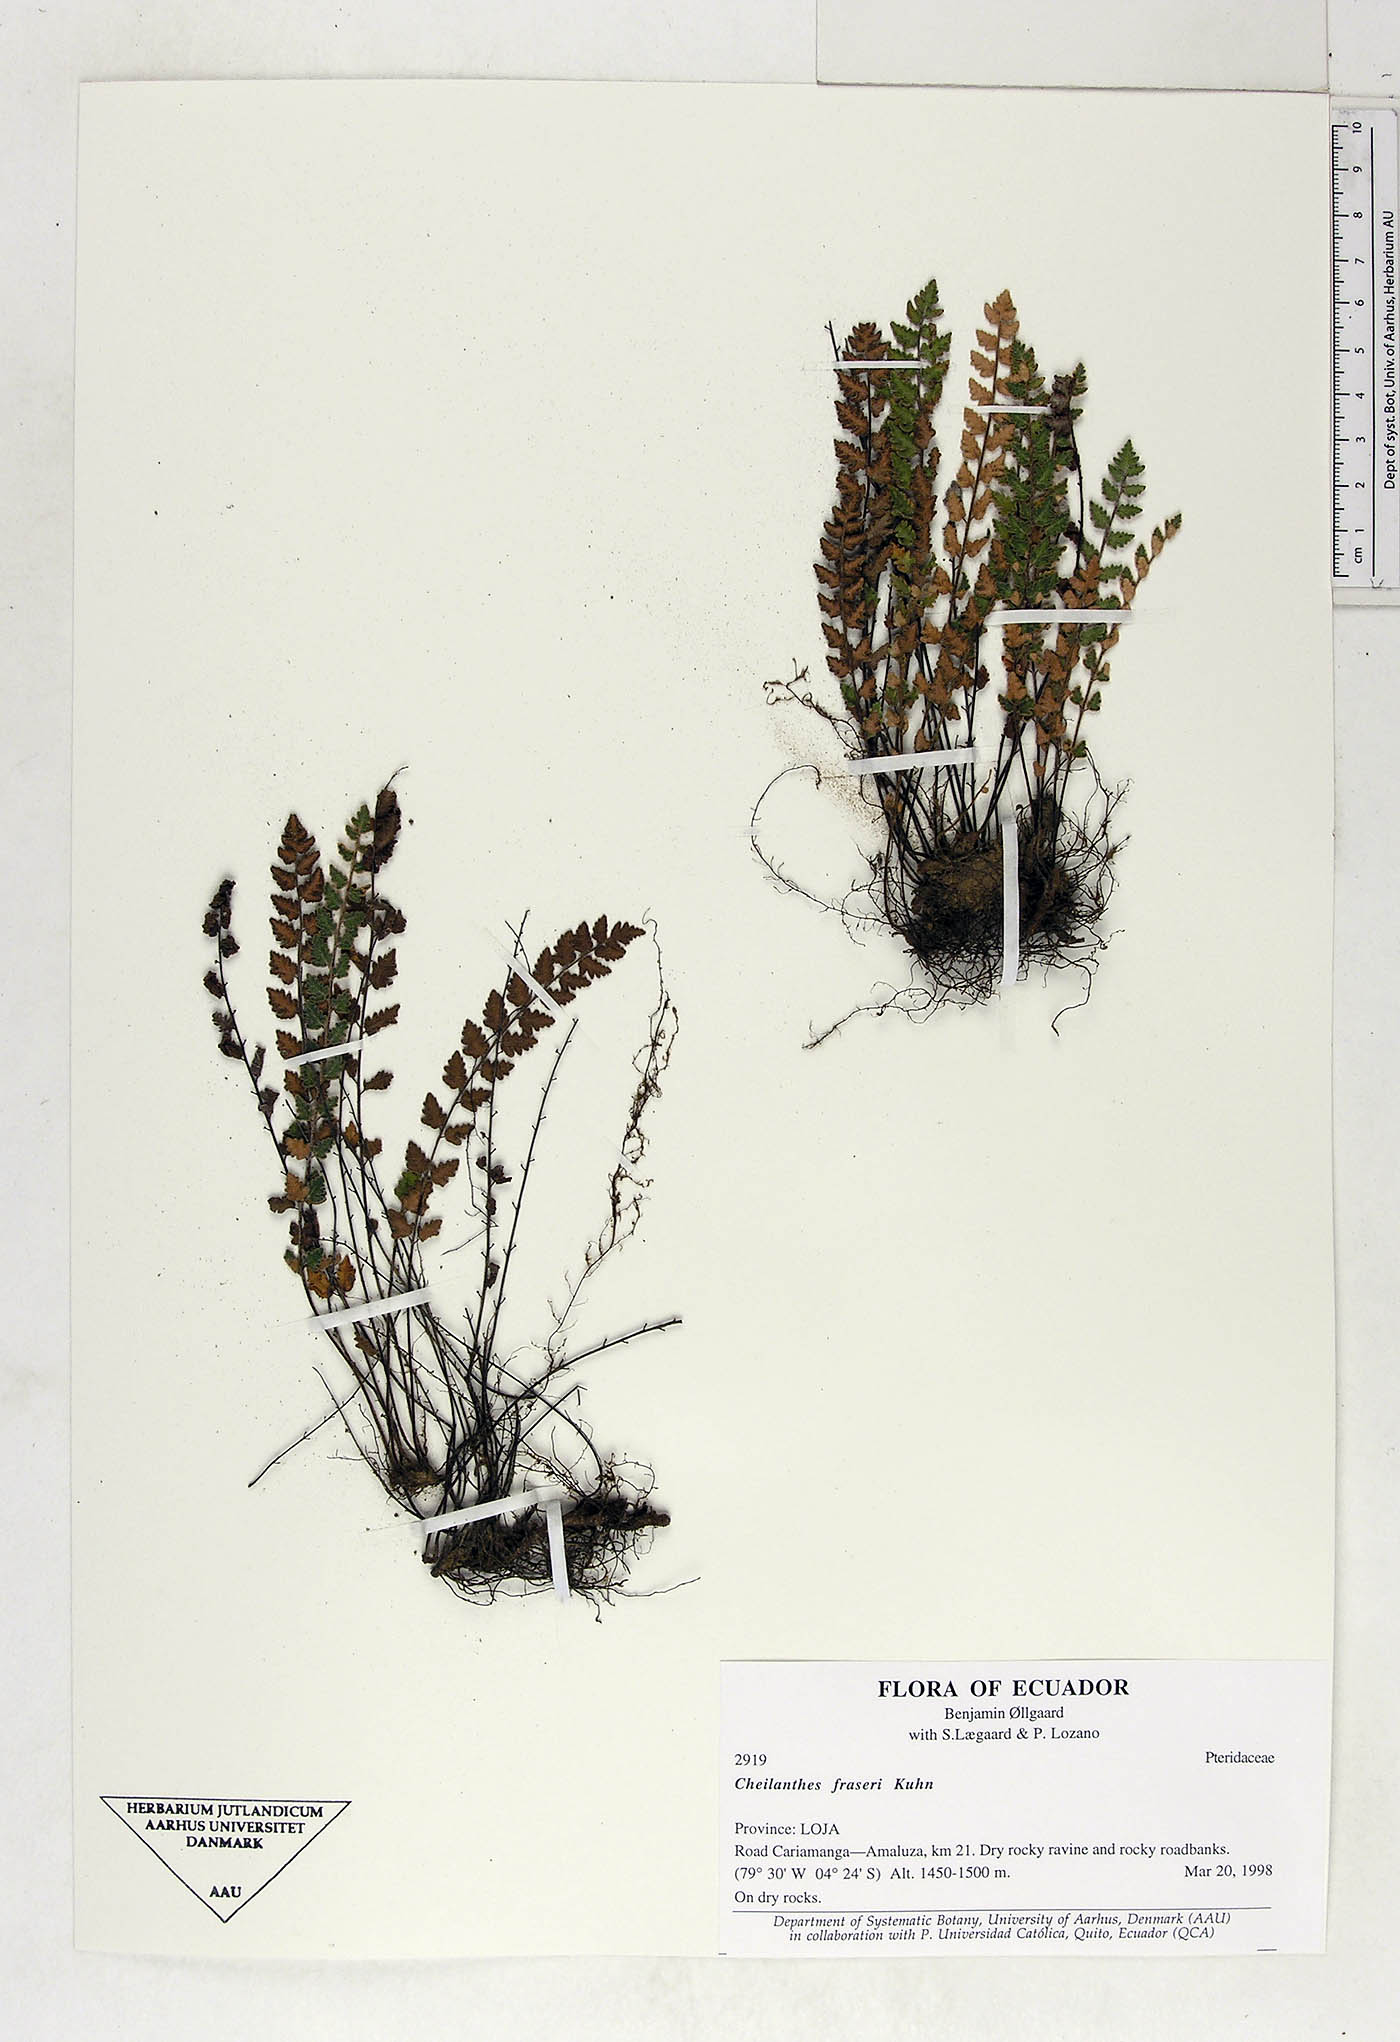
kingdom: Plantae
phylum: Tracheophyta
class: Polypodiopsida
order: Polypodiales
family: Pteridaceae
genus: Cheilanthes
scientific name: Cheilanthes fraseri
